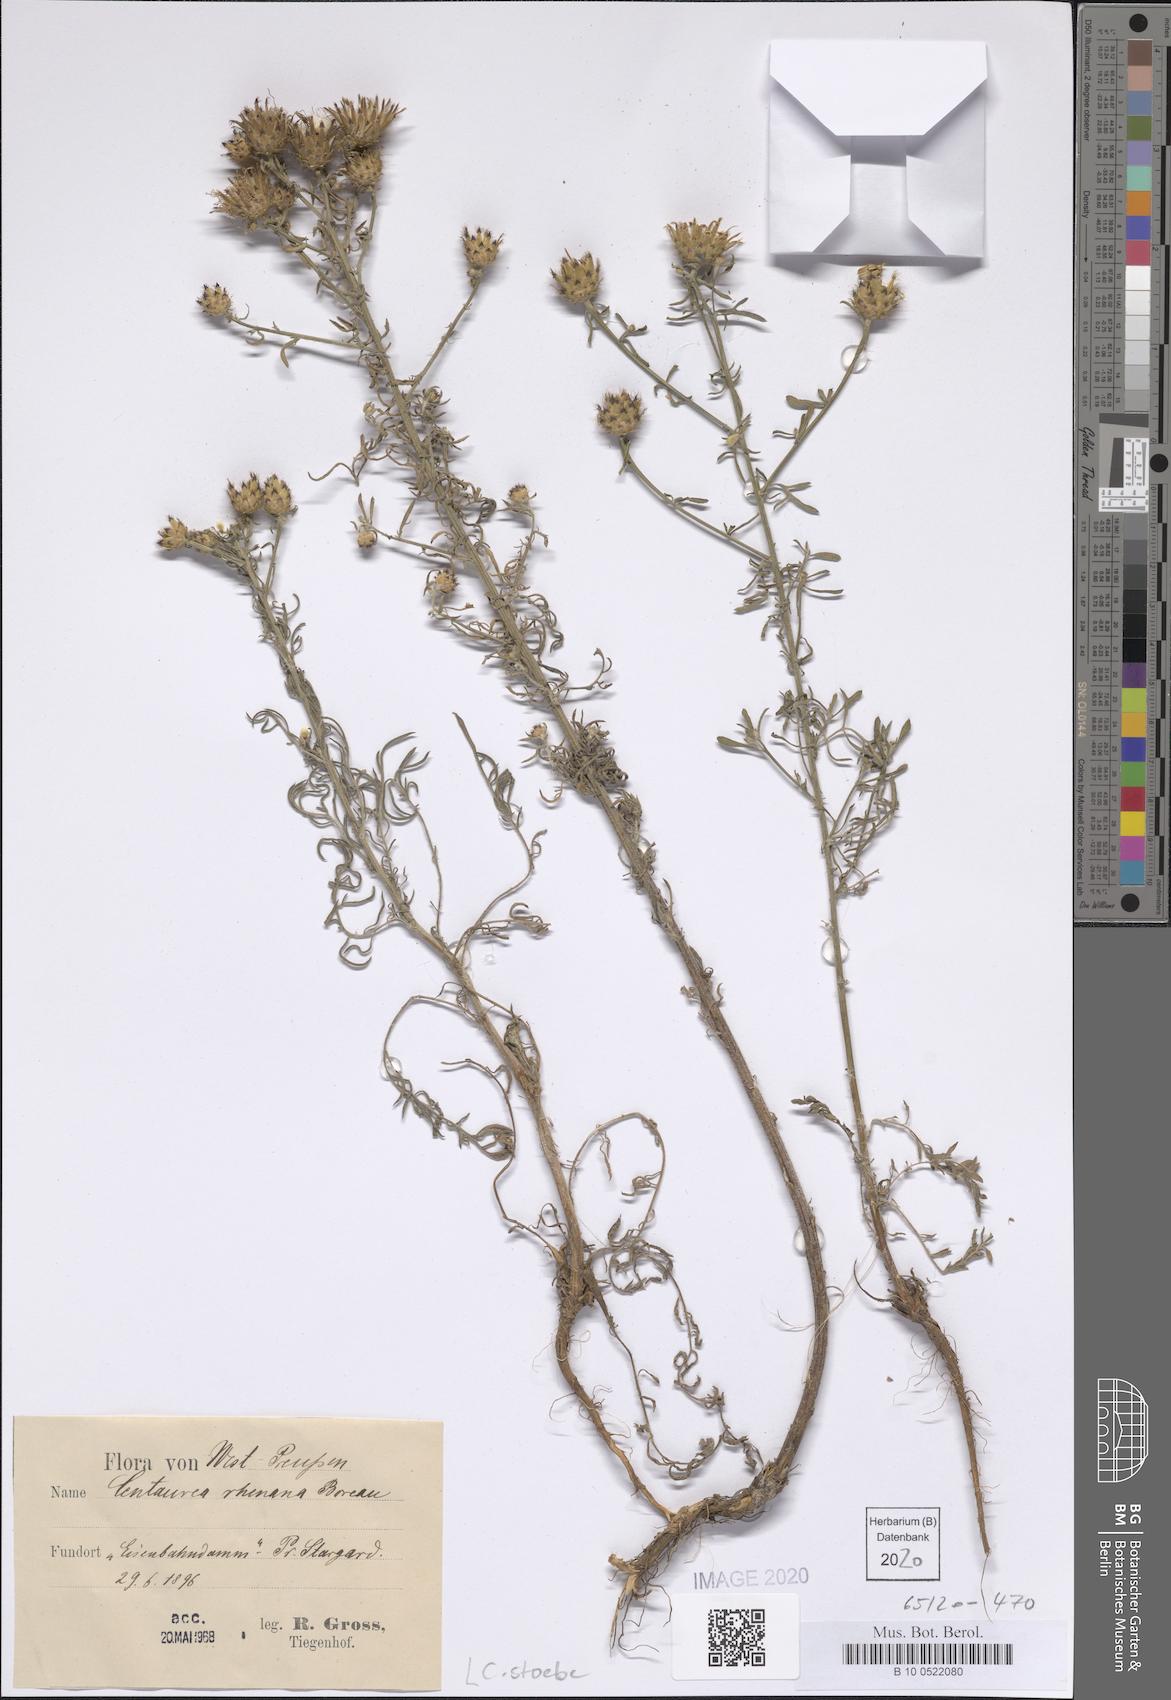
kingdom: Plantae
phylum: Tracheophyta
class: Magnoliopsida
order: Asterales
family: Asteraceae
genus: Centaurea
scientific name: Centaurea stoebe
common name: Spotted knapweed
